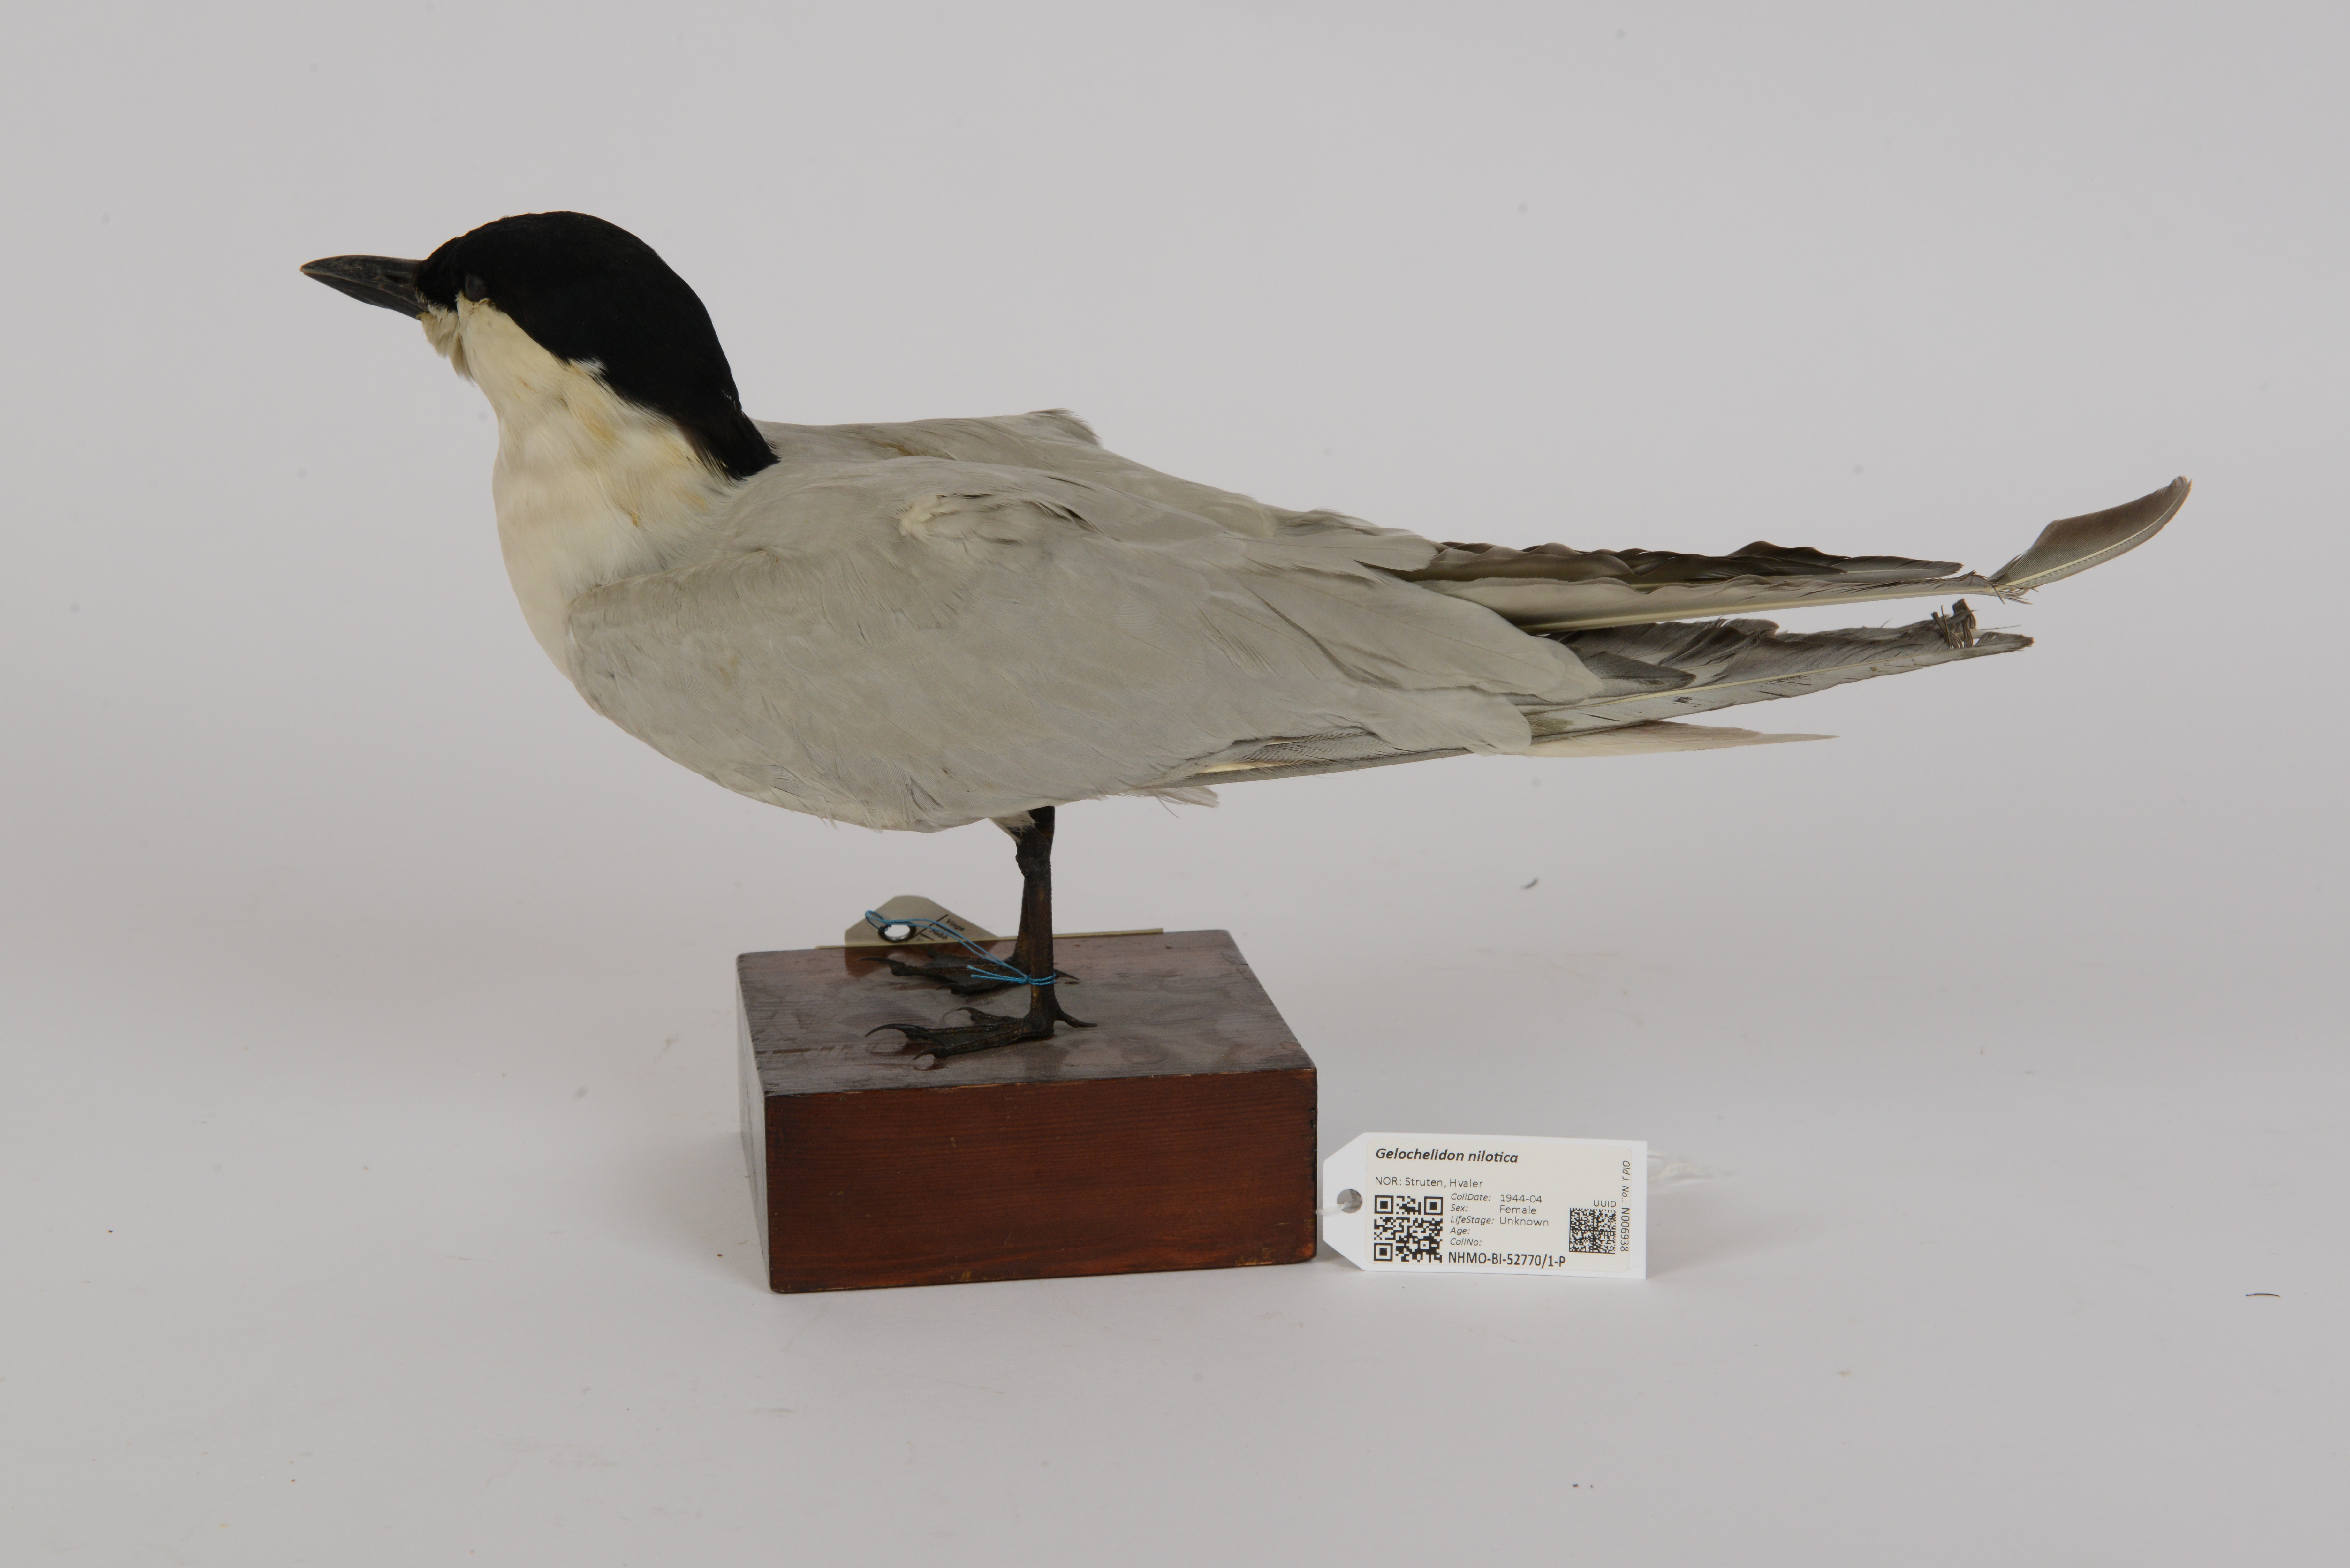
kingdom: Animalia
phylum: Chordata
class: Aves
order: Charadriiformes
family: Laridae
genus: Gelochelidon
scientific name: Gelochelidon nilotica
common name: Gull-billed tern
